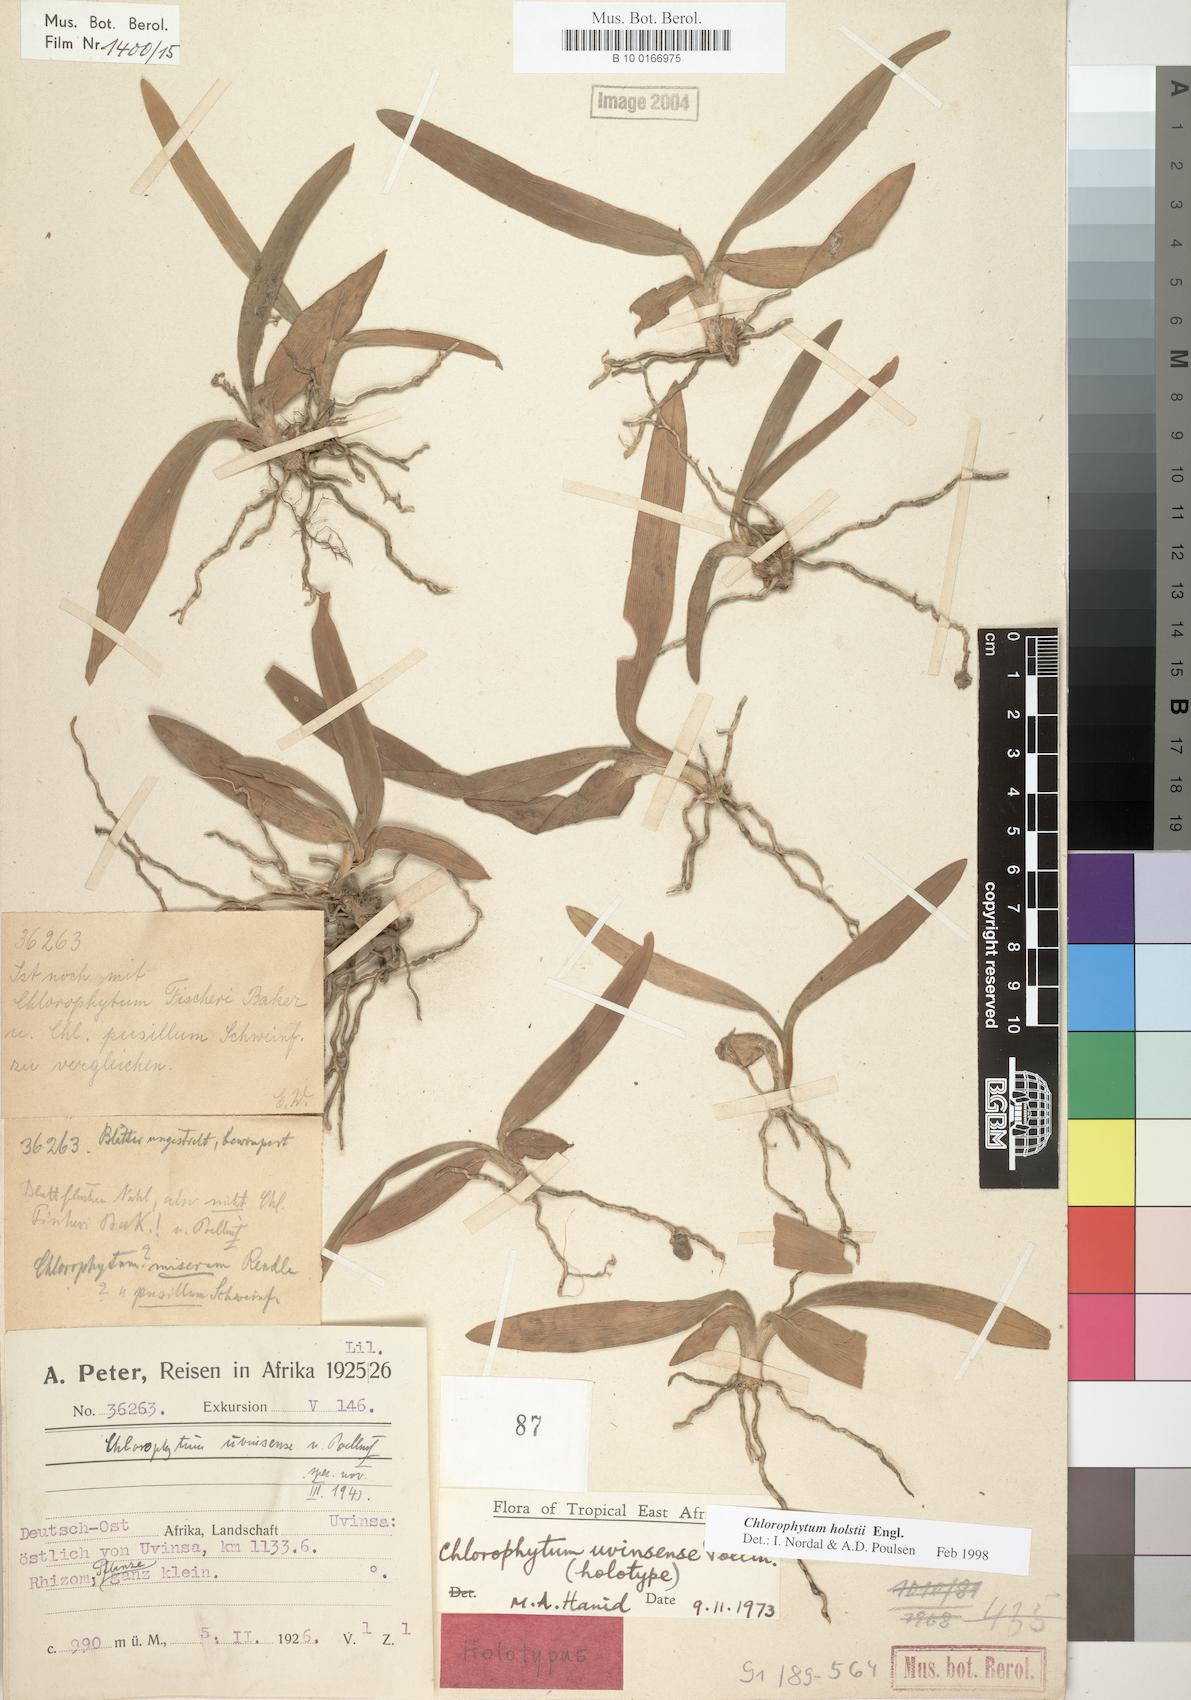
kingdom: Plantae
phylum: Tracheophyta
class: Liliopsida
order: Asparagales
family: Asparagaceae
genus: Chlorophytum
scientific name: Chlorophytum holstii
